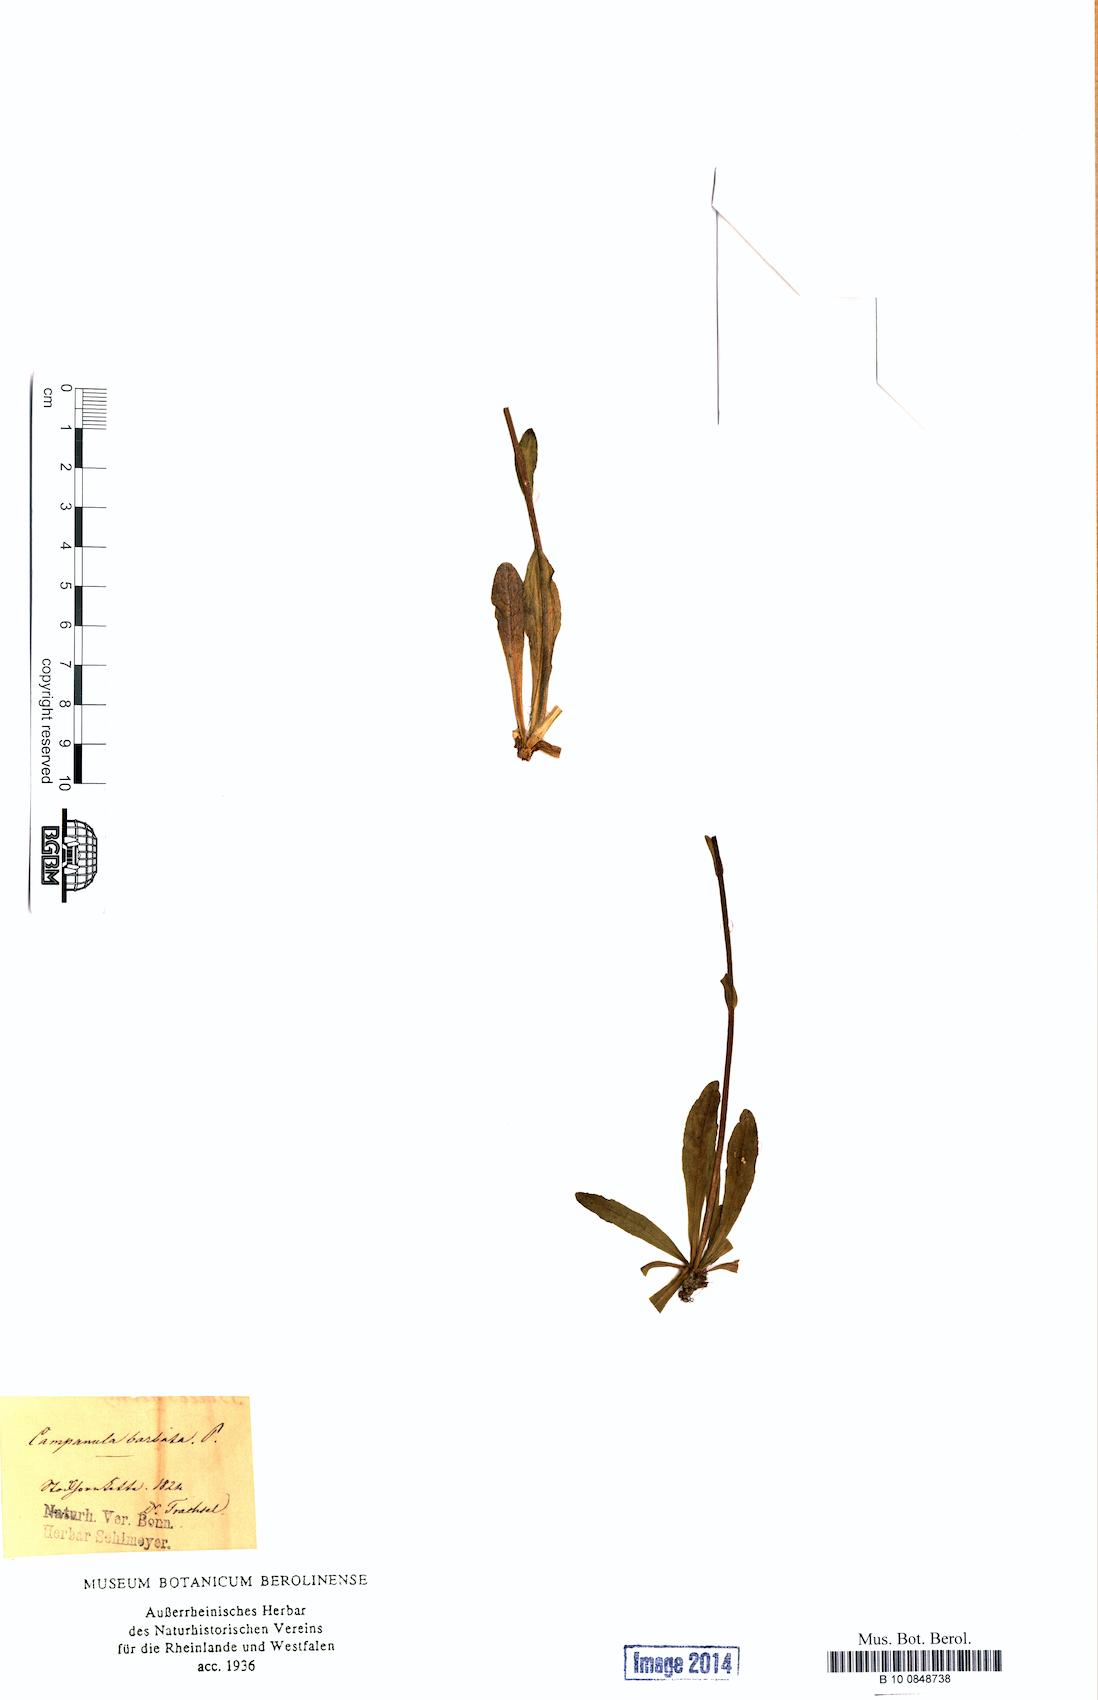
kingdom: Plantae
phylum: Tracheophyta
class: Magnoliopsida
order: Asterales
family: Campanulaceae
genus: Campanula
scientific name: Campanula barbata
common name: Bearded bellflower
